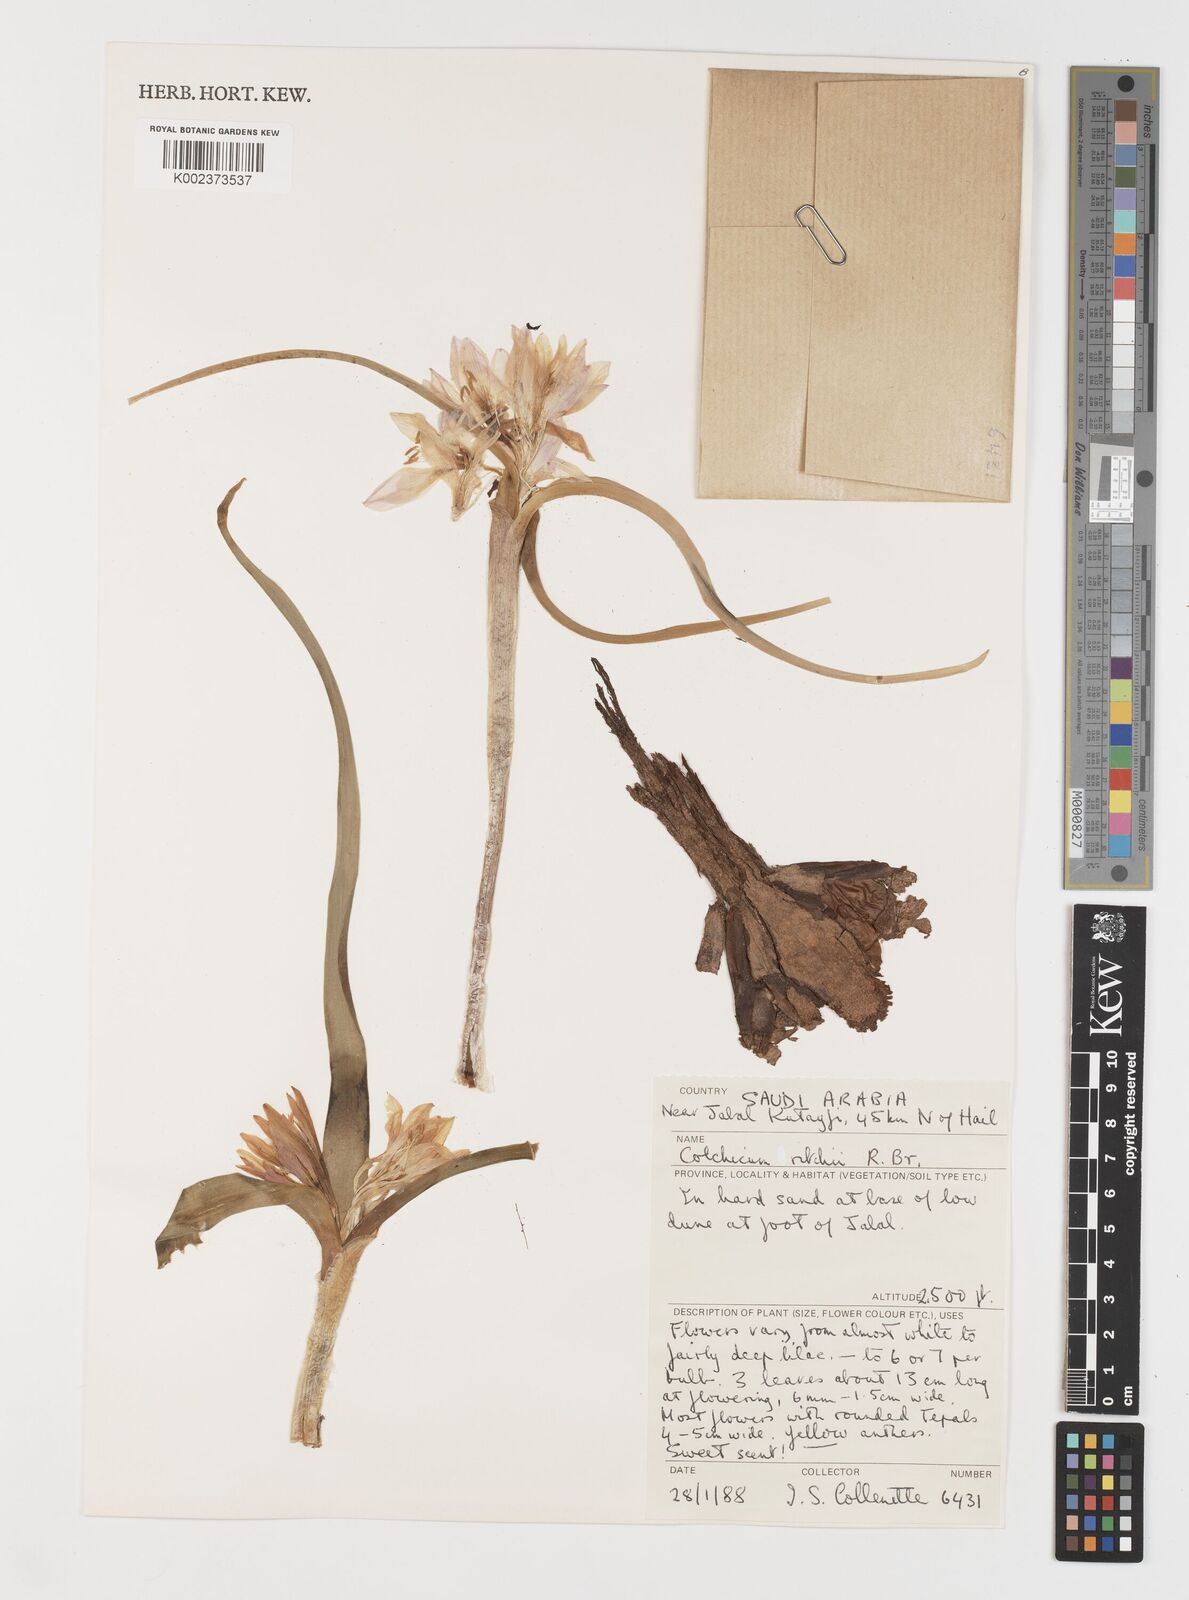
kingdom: Plantae
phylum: Tracheophyta
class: Liliopsida
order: Liliales
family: Colchicaceae
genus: Colchicum
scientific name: Colchicum ritchii
